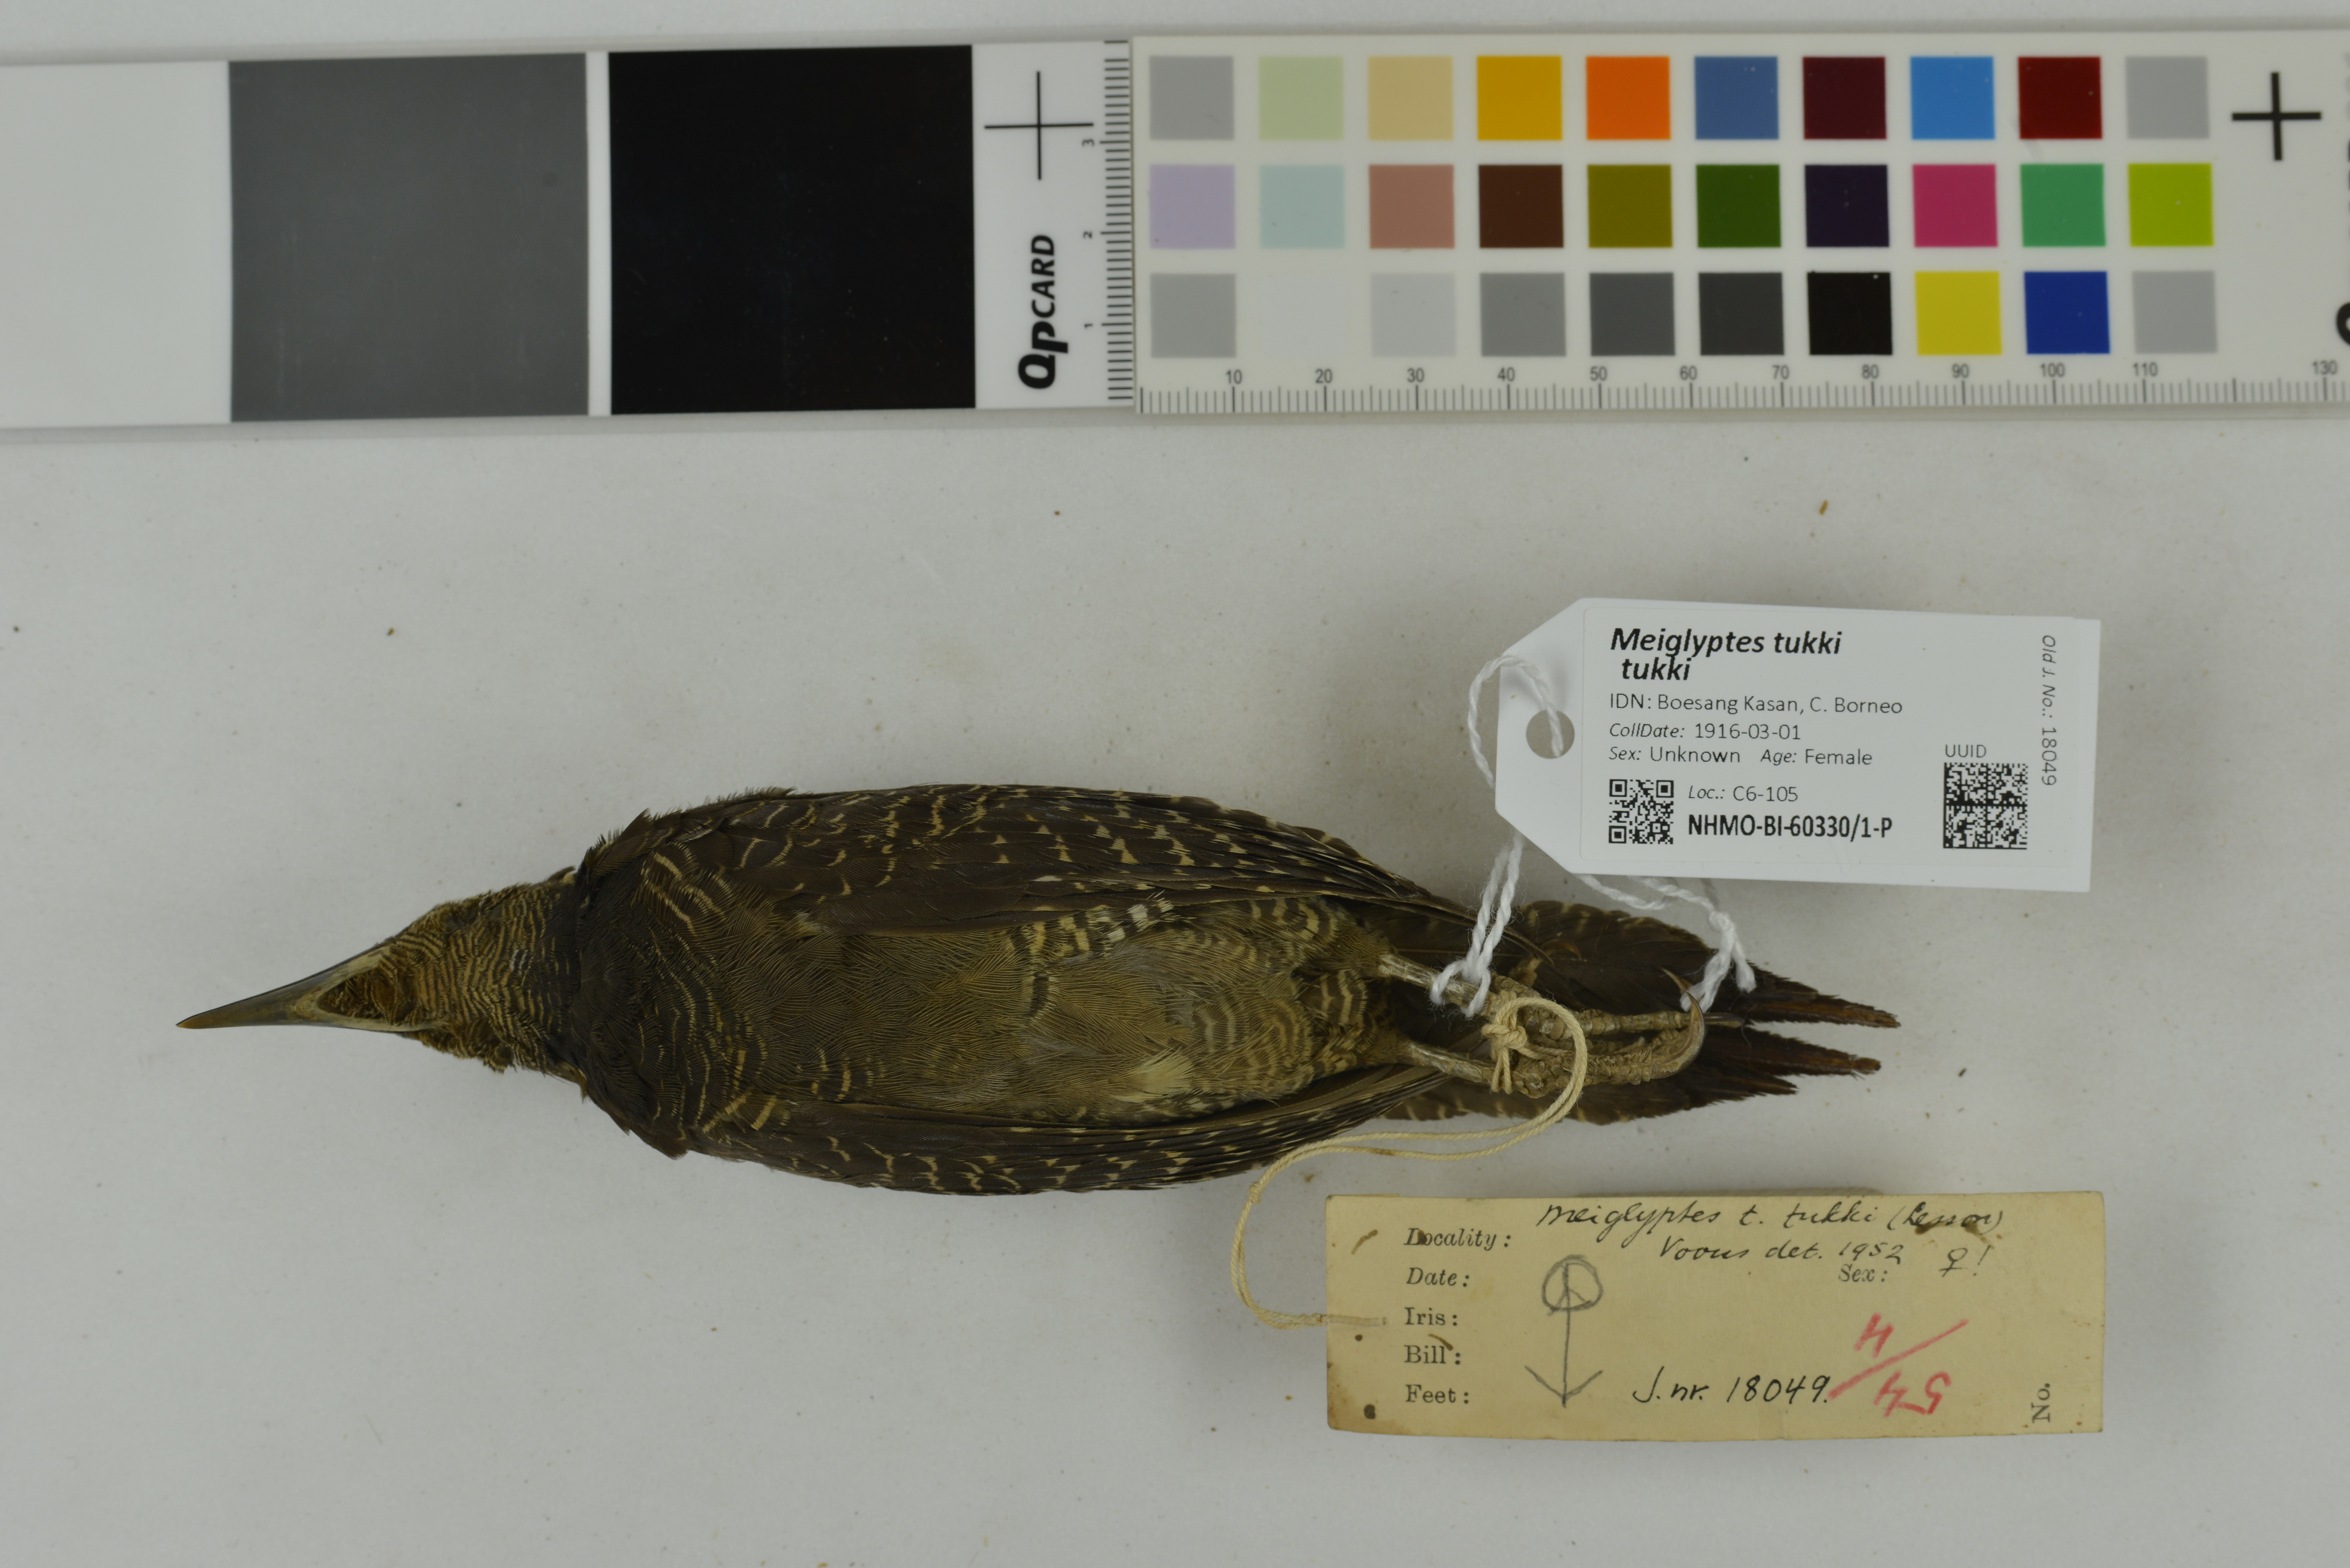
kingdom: Animalia
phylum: Chordata
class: Aves
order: Piciformes
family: Picidae
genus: Meiglyptes
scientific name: Meiglyptes tukki
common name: Buff-necked woodpecker
